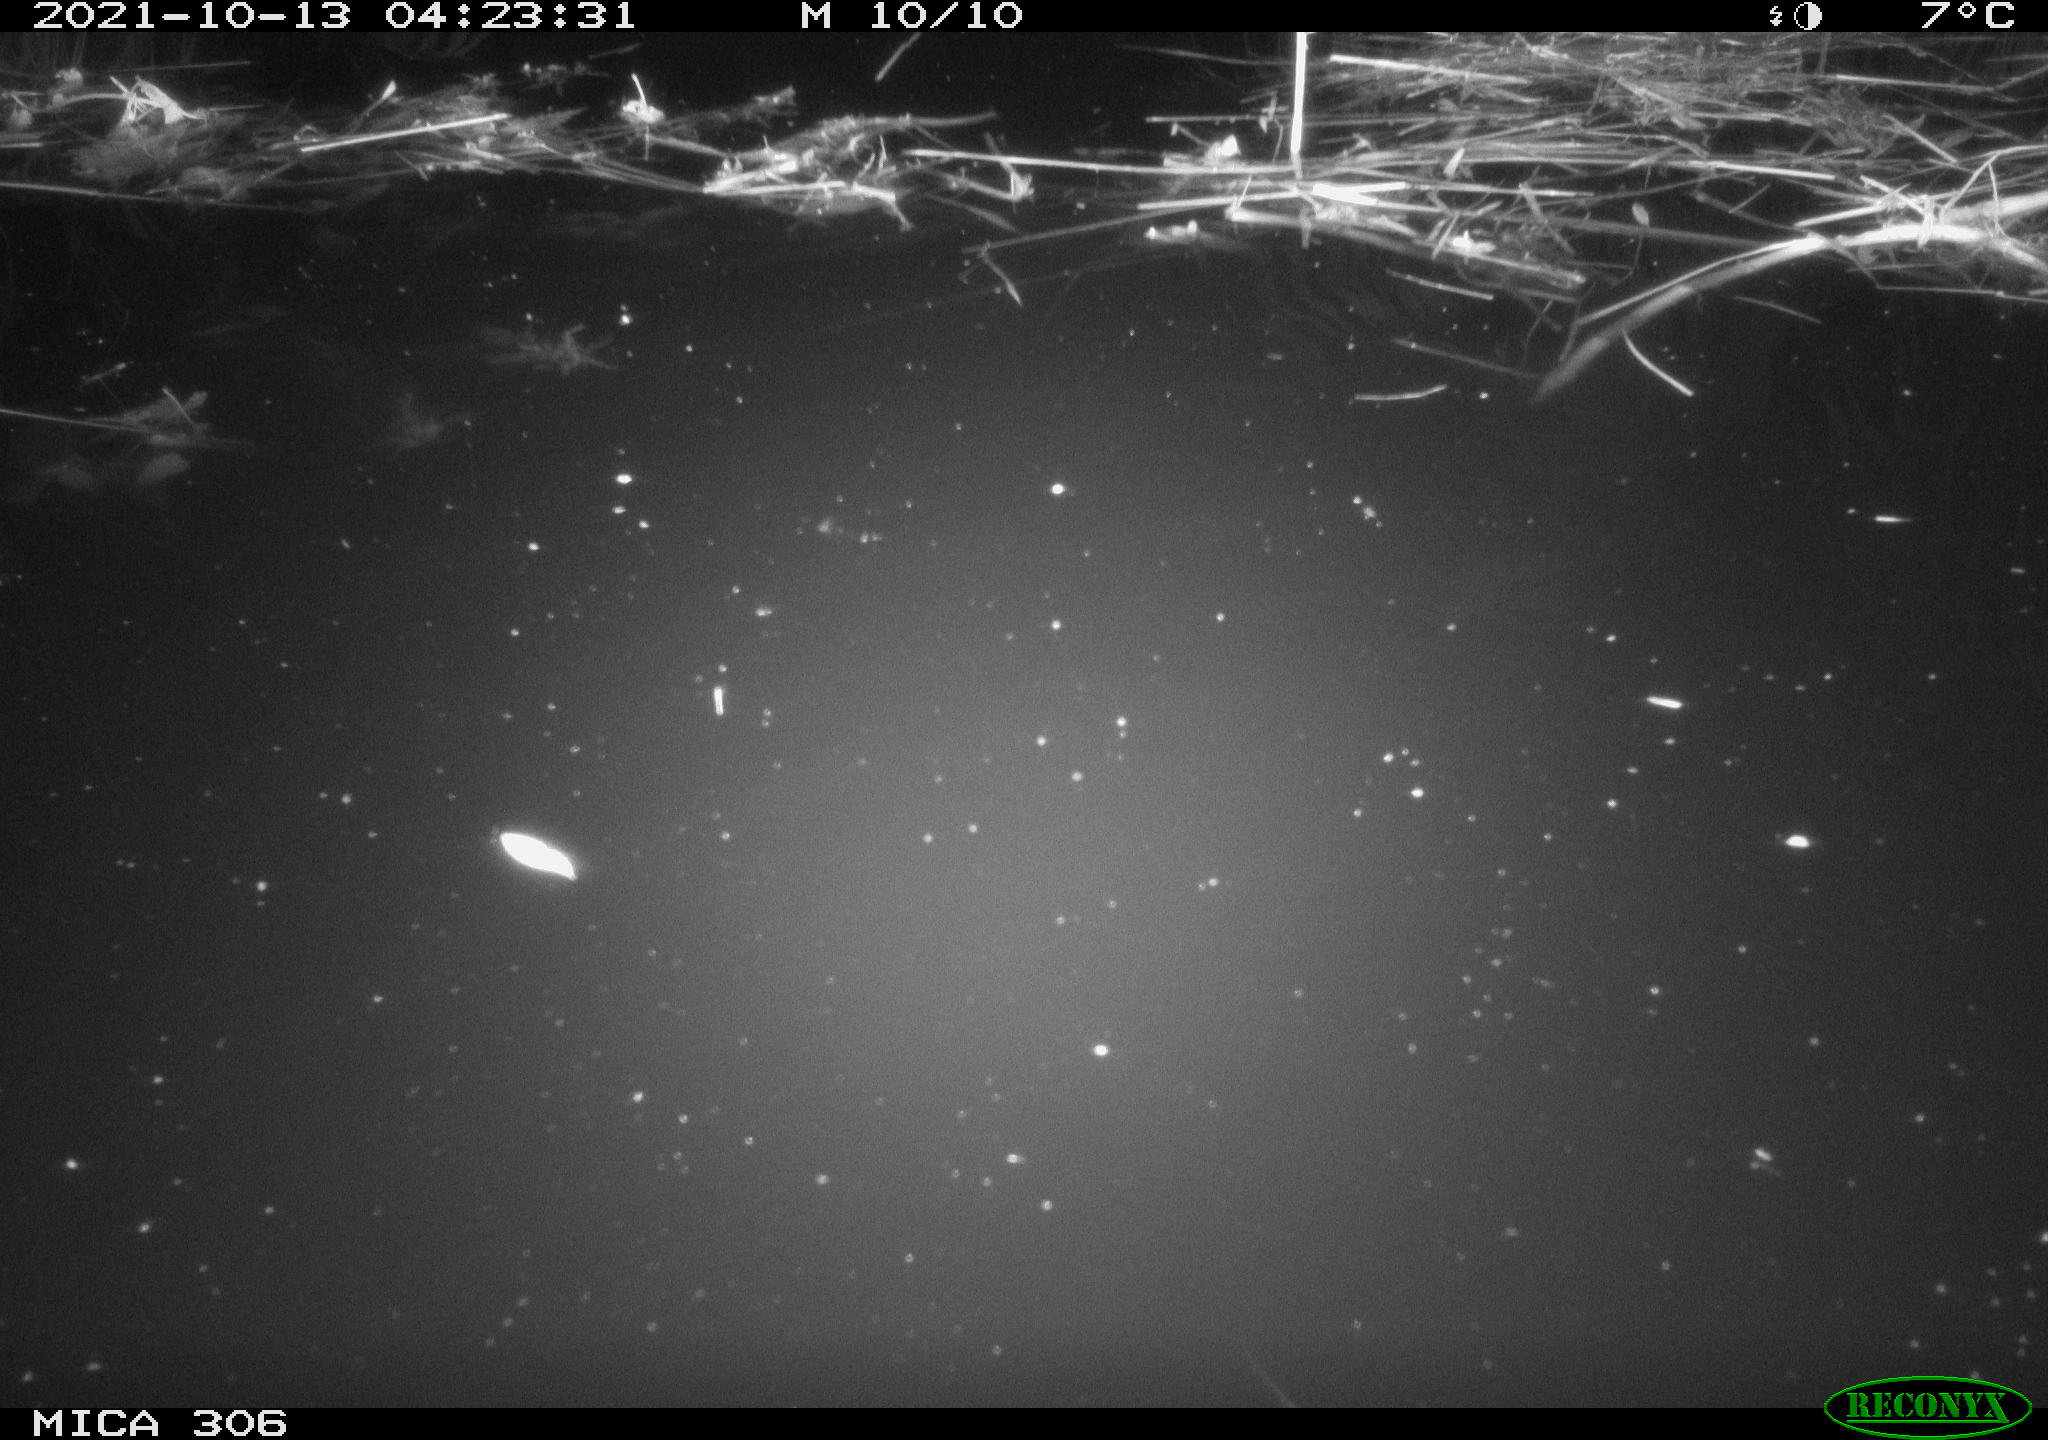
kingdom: Animalia
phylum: Chordata
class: Mammalia
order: Rodentia
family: Cricetidae
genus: Ondatra
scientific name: Ondatra zibethicus
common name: Muskrat
